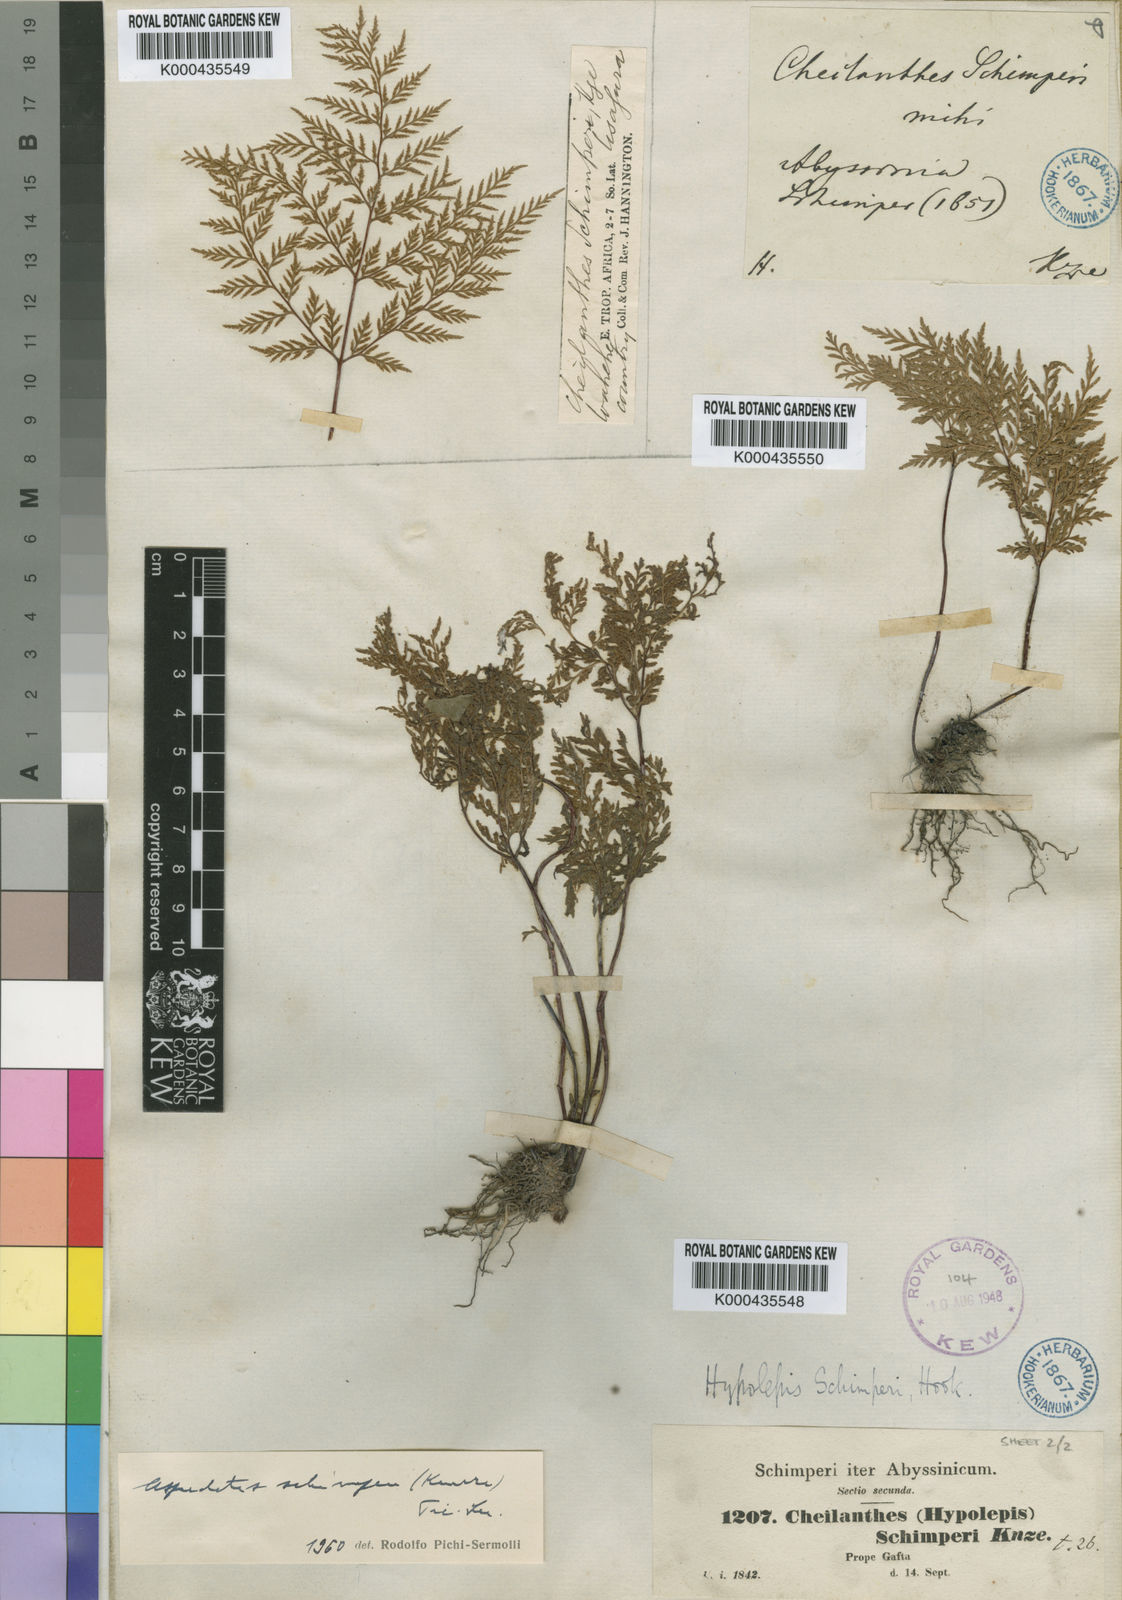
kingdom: Plantae
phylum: Tracheophyta
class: Polypodiopsida
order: Polypodiales
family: Pteridaceae
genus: Cheilanthes
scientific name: Cheilanthes schimperi
